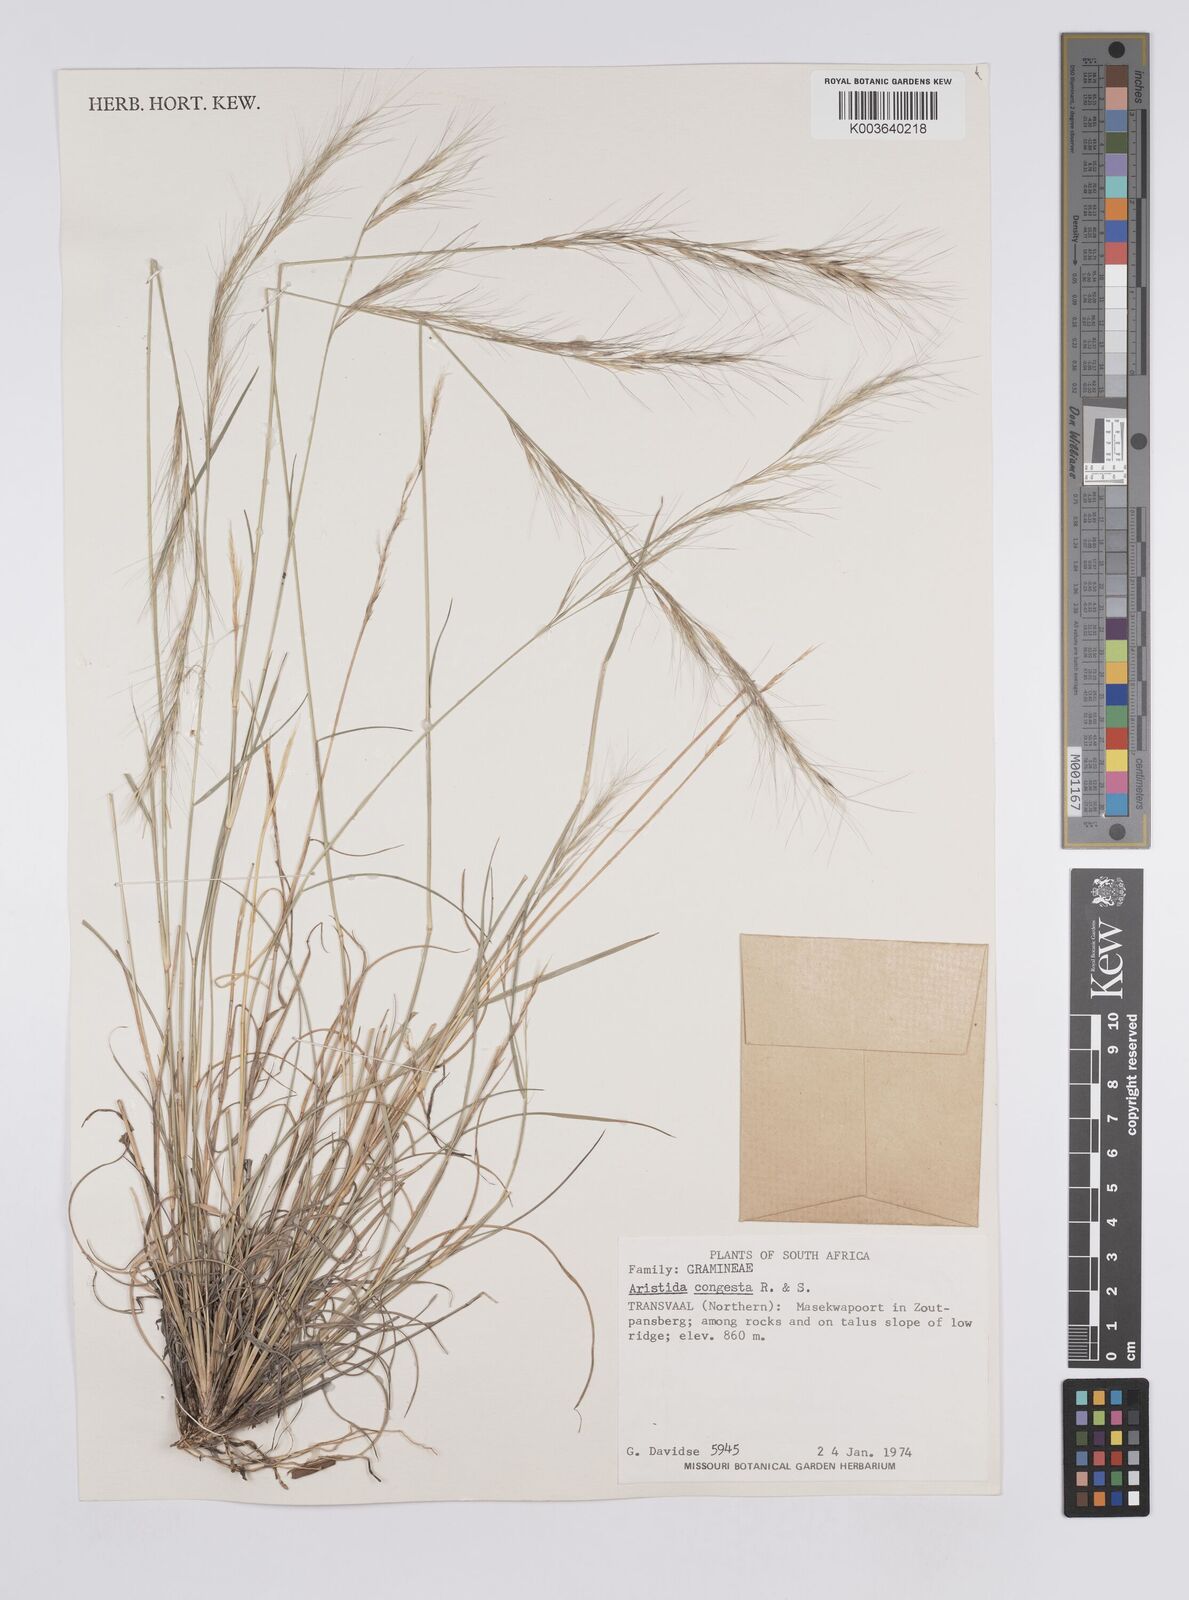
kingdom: Plantae
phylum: Tracheophyta
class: Liliopsida
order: Poales
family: Poaceae
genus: Aristida
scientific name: Aristida congesta
